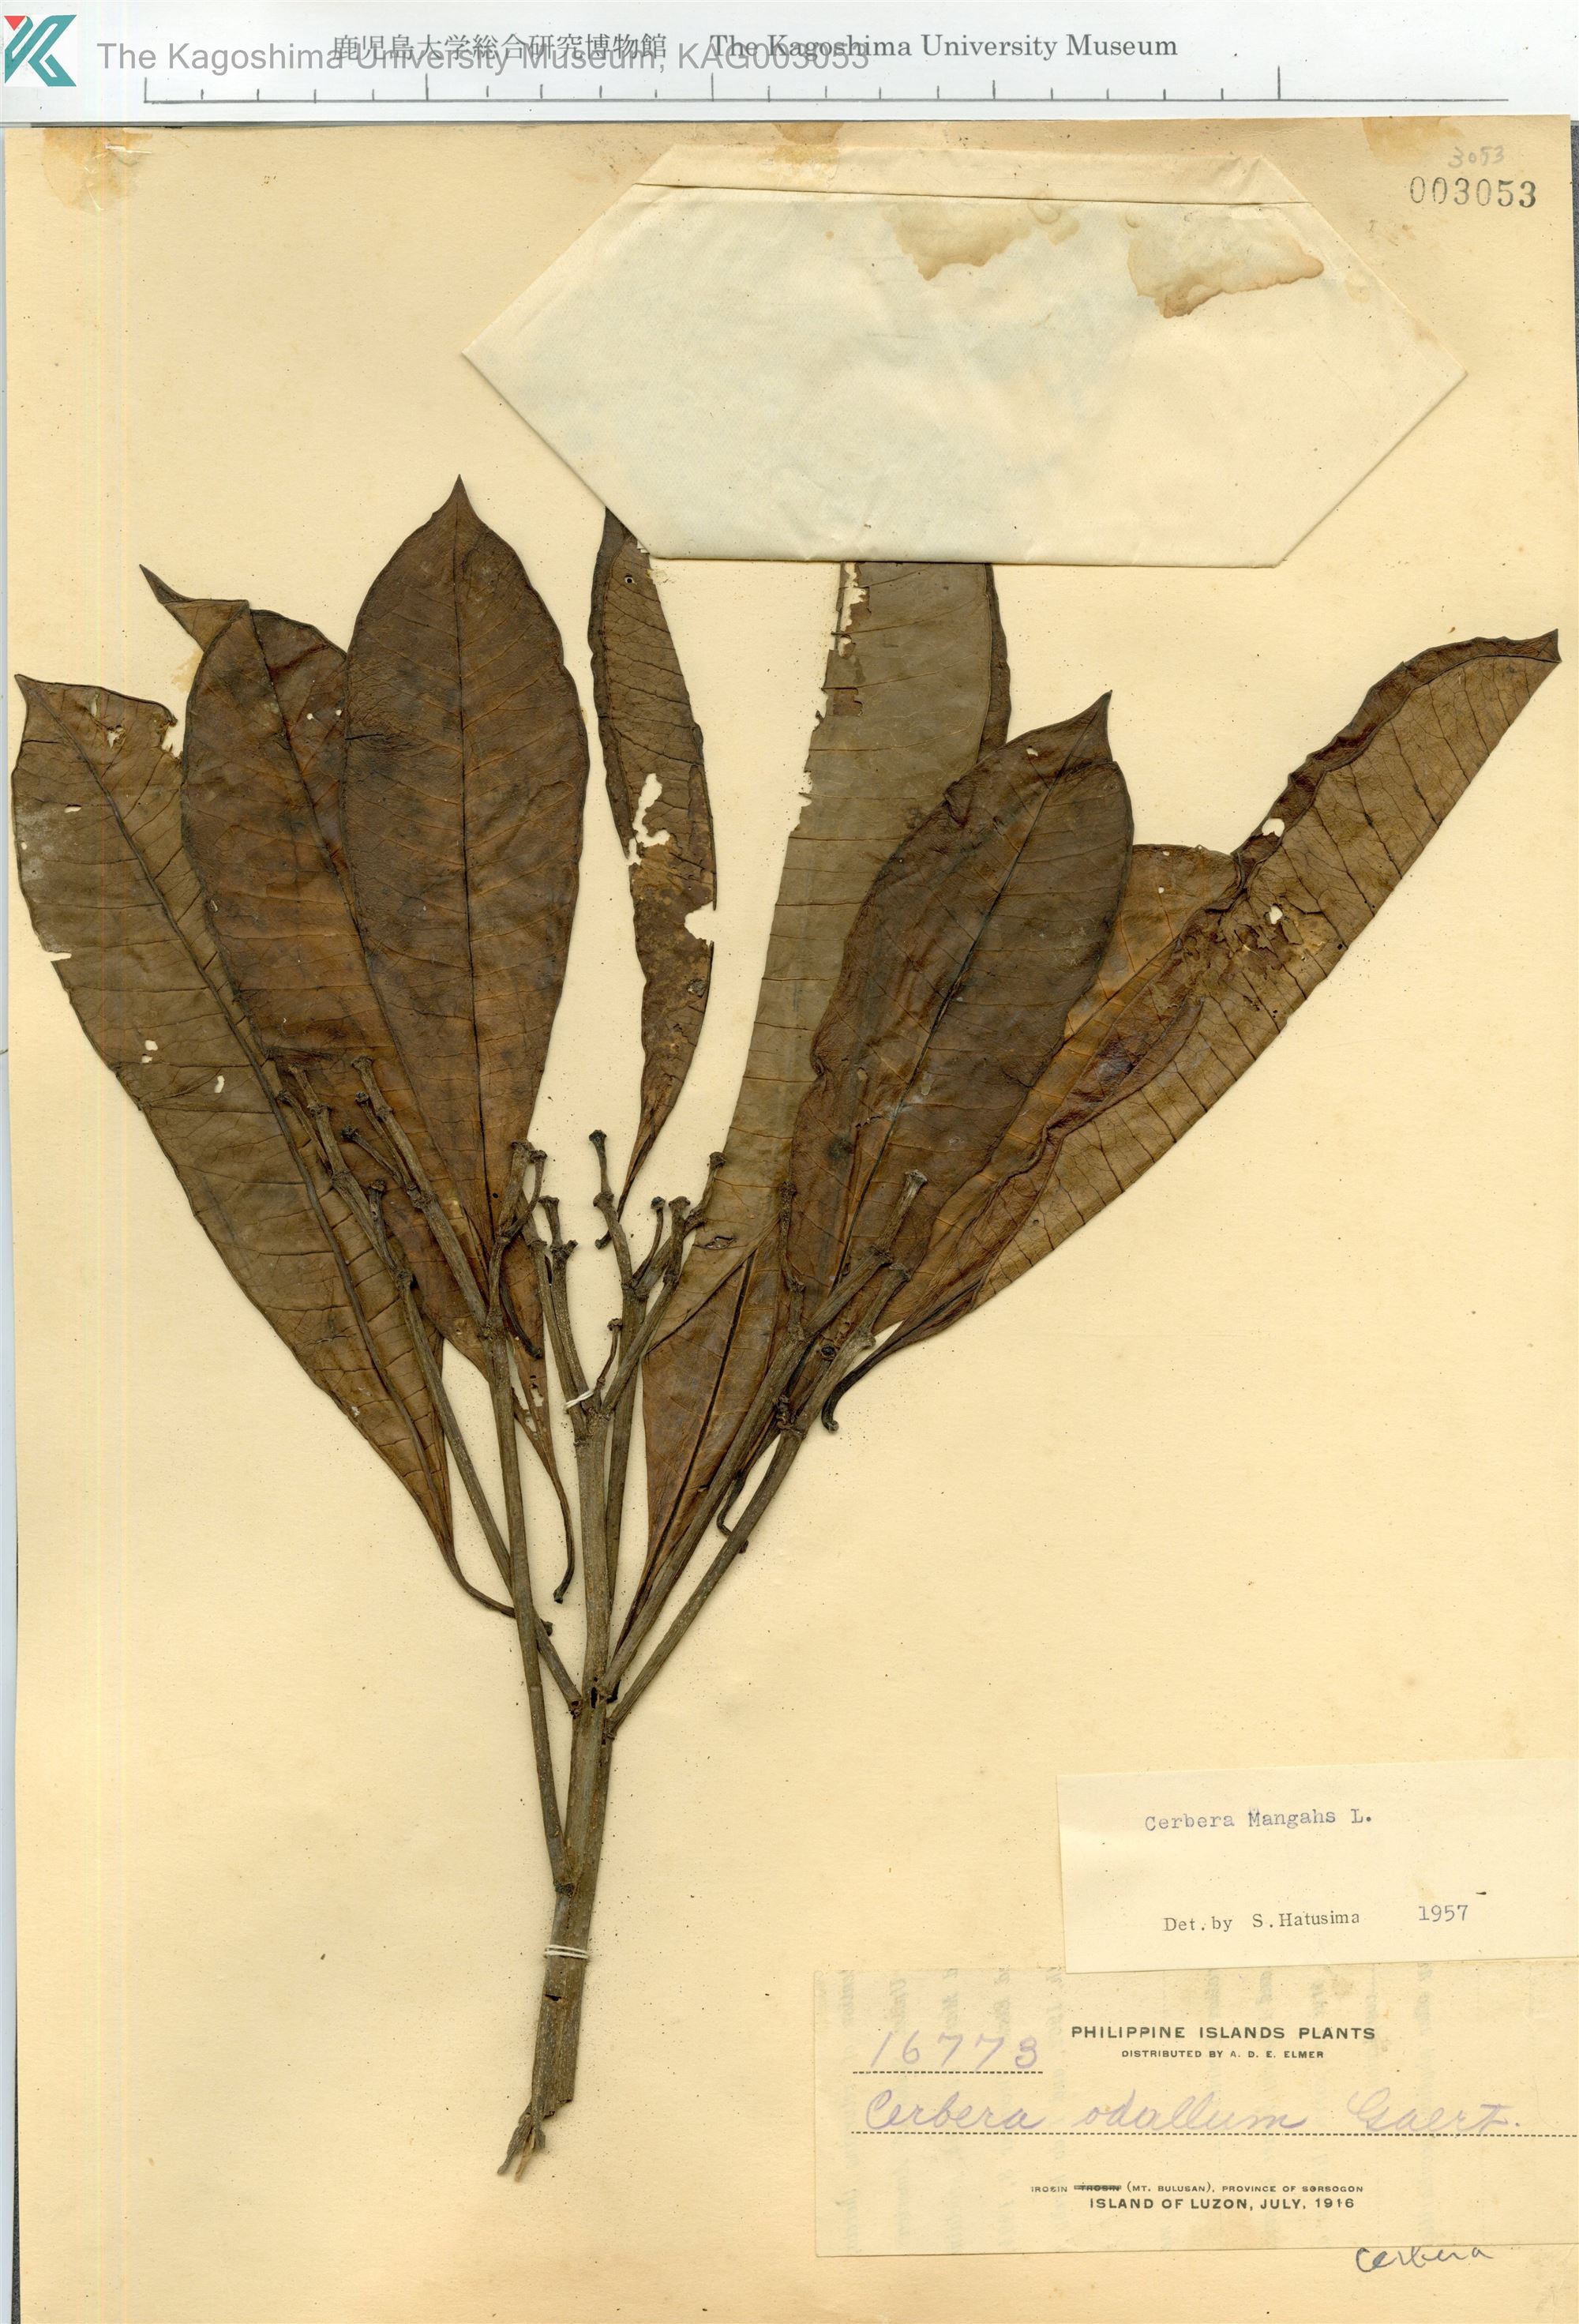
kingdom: Plantae
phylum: Tracheophyta
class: Magnoliopsida
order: Gentianales
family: Apocynaceae
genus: Cerbera
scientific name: Cerbera manghas
